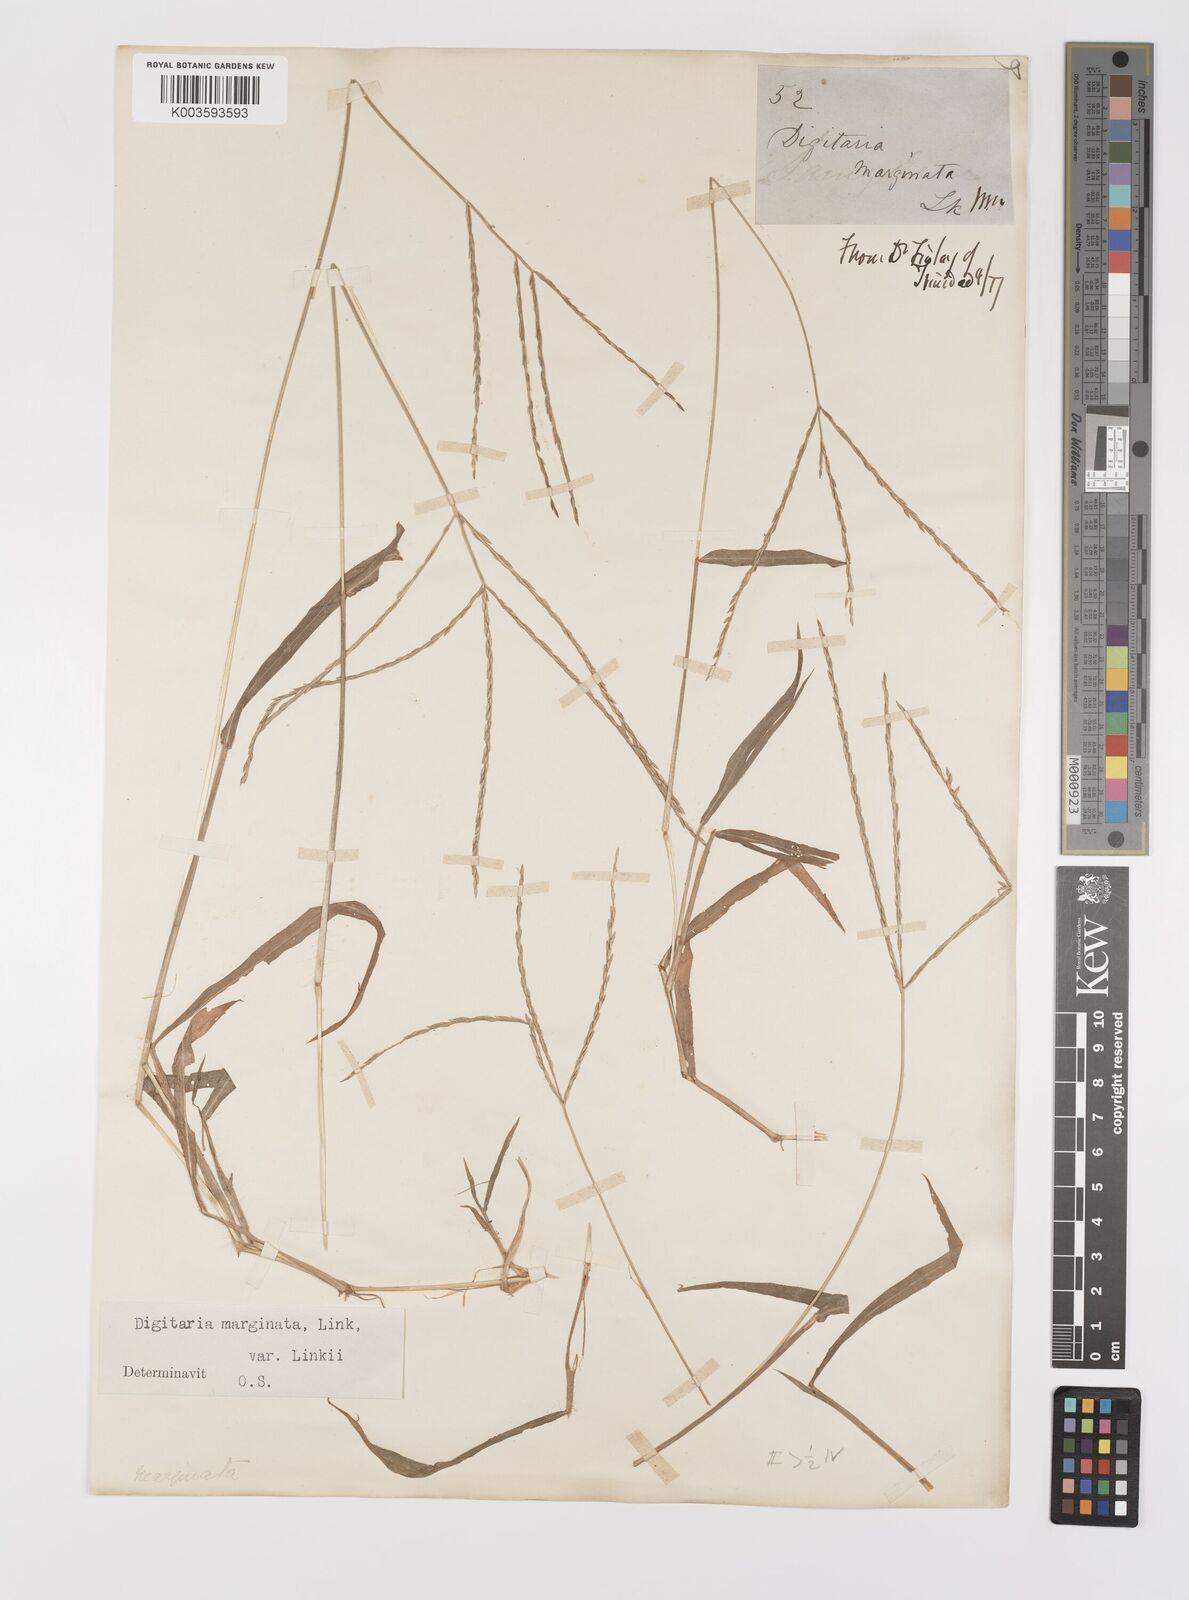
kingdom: Plantae
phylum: Tracheophyta
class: Liliopsida
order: Poales
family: Poaceae
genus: Digitaria
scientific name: Digitaria ciliaris
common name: Tropical finger-grass
